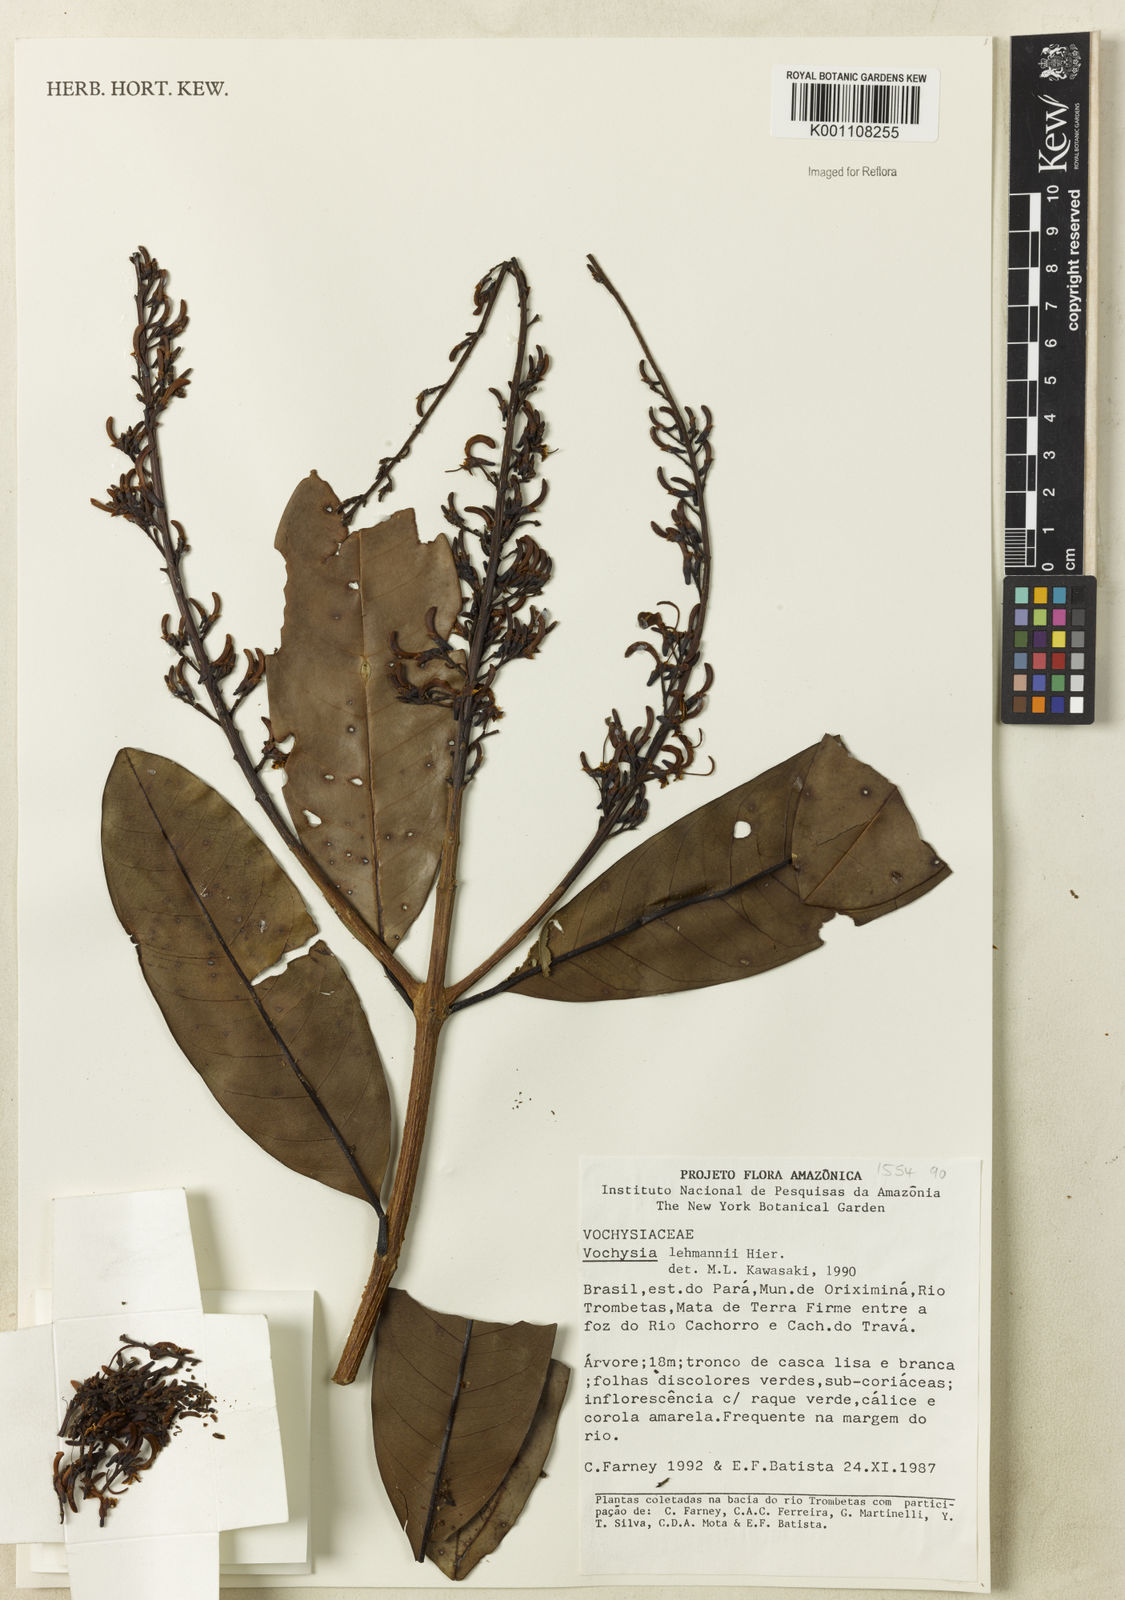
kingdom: Plantae
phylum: Tracheophyta
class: Magnoliopsida
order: Myrtales
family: Vochysiaceae
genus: Vochysia
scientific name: Vochysia lehmannii
